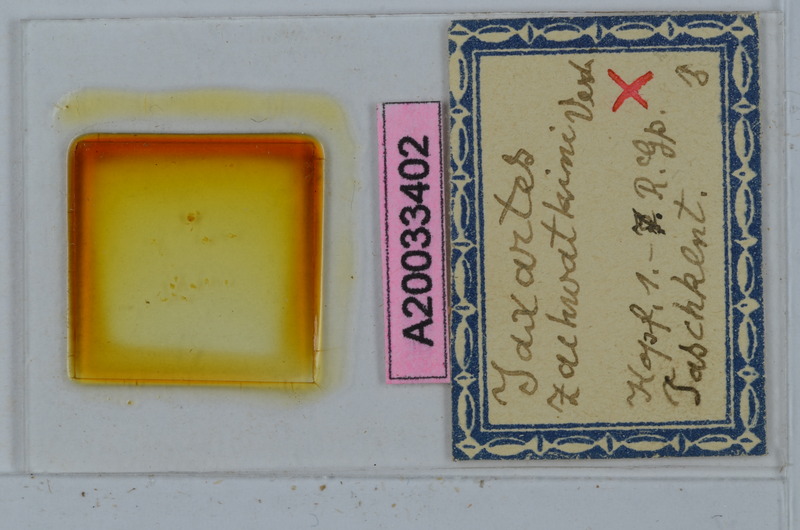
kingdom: Animalia
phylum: Arthropoda
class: Diplopoda
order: Polydesmida
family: Polydesmidae
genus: Jaxartes
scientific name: Jaxartes zachvatkini
